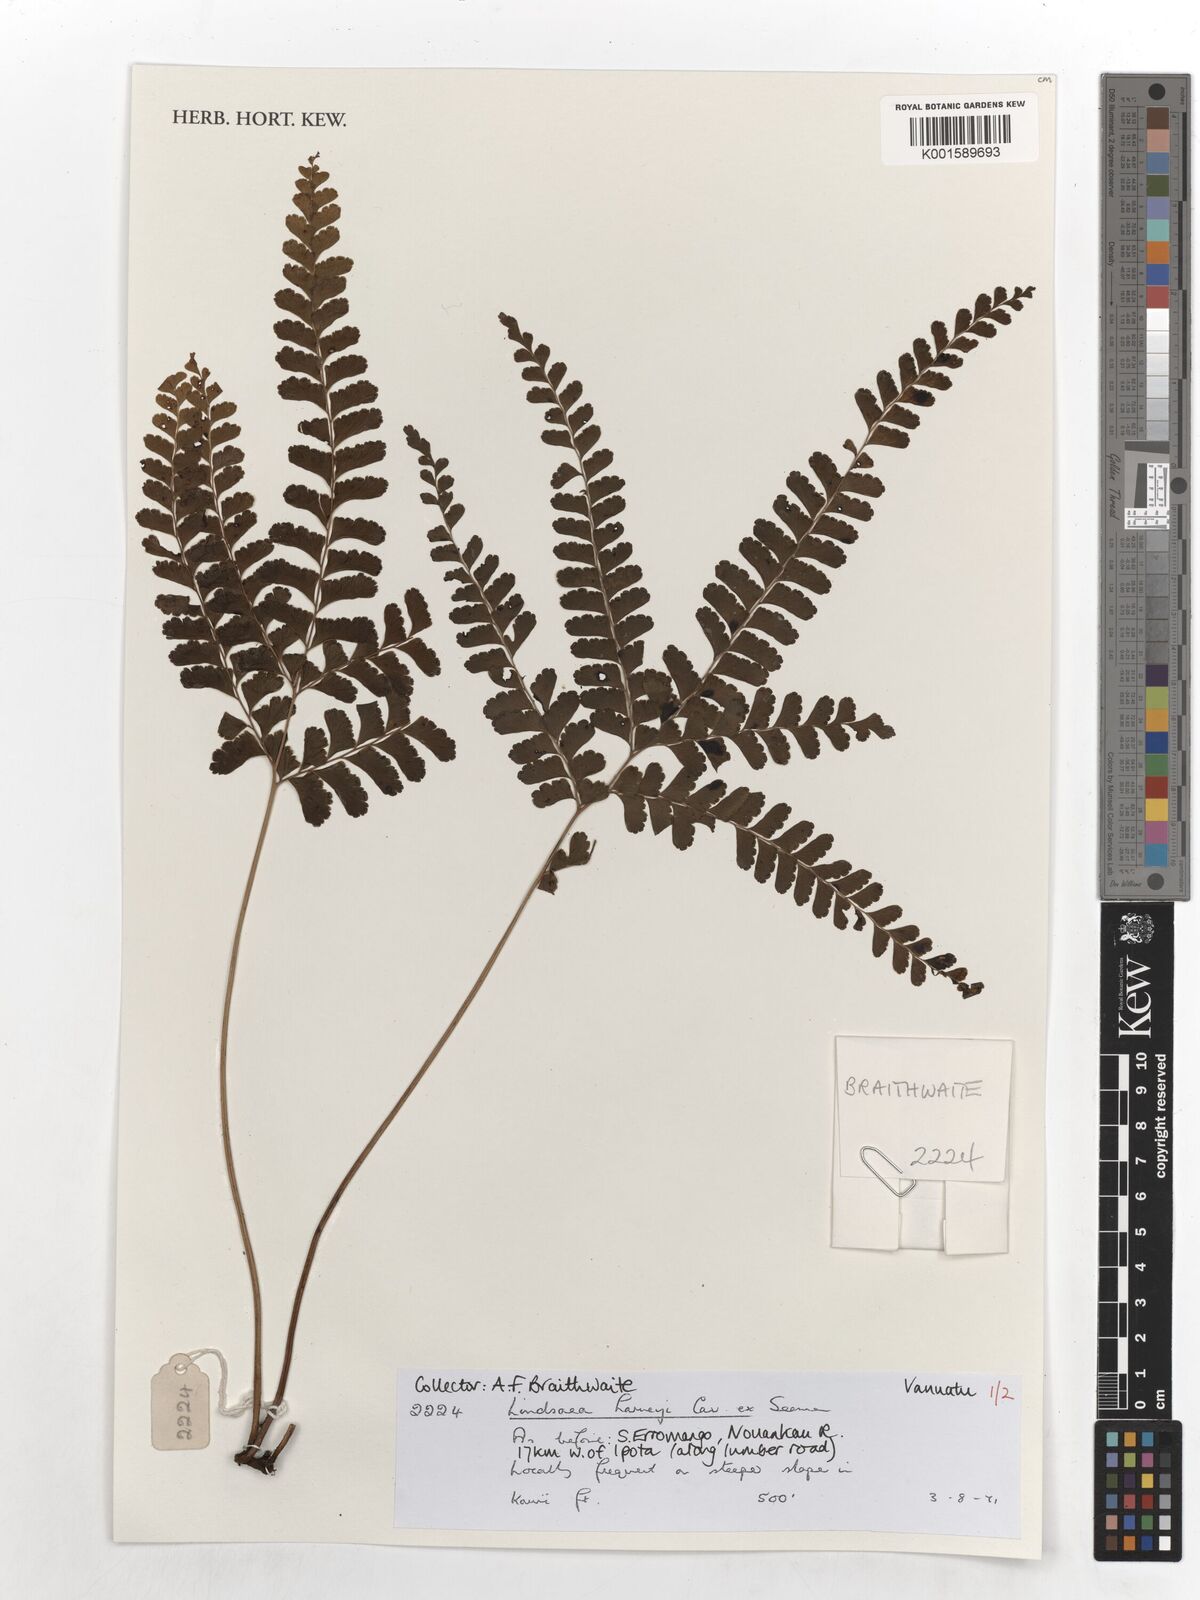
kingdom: Plantae
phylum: Tracheophyta
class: Polypodiopsida
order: Polypodiales
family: Lindsaeaceae
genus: Lindsaea
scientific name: Lindsaea harveyi
